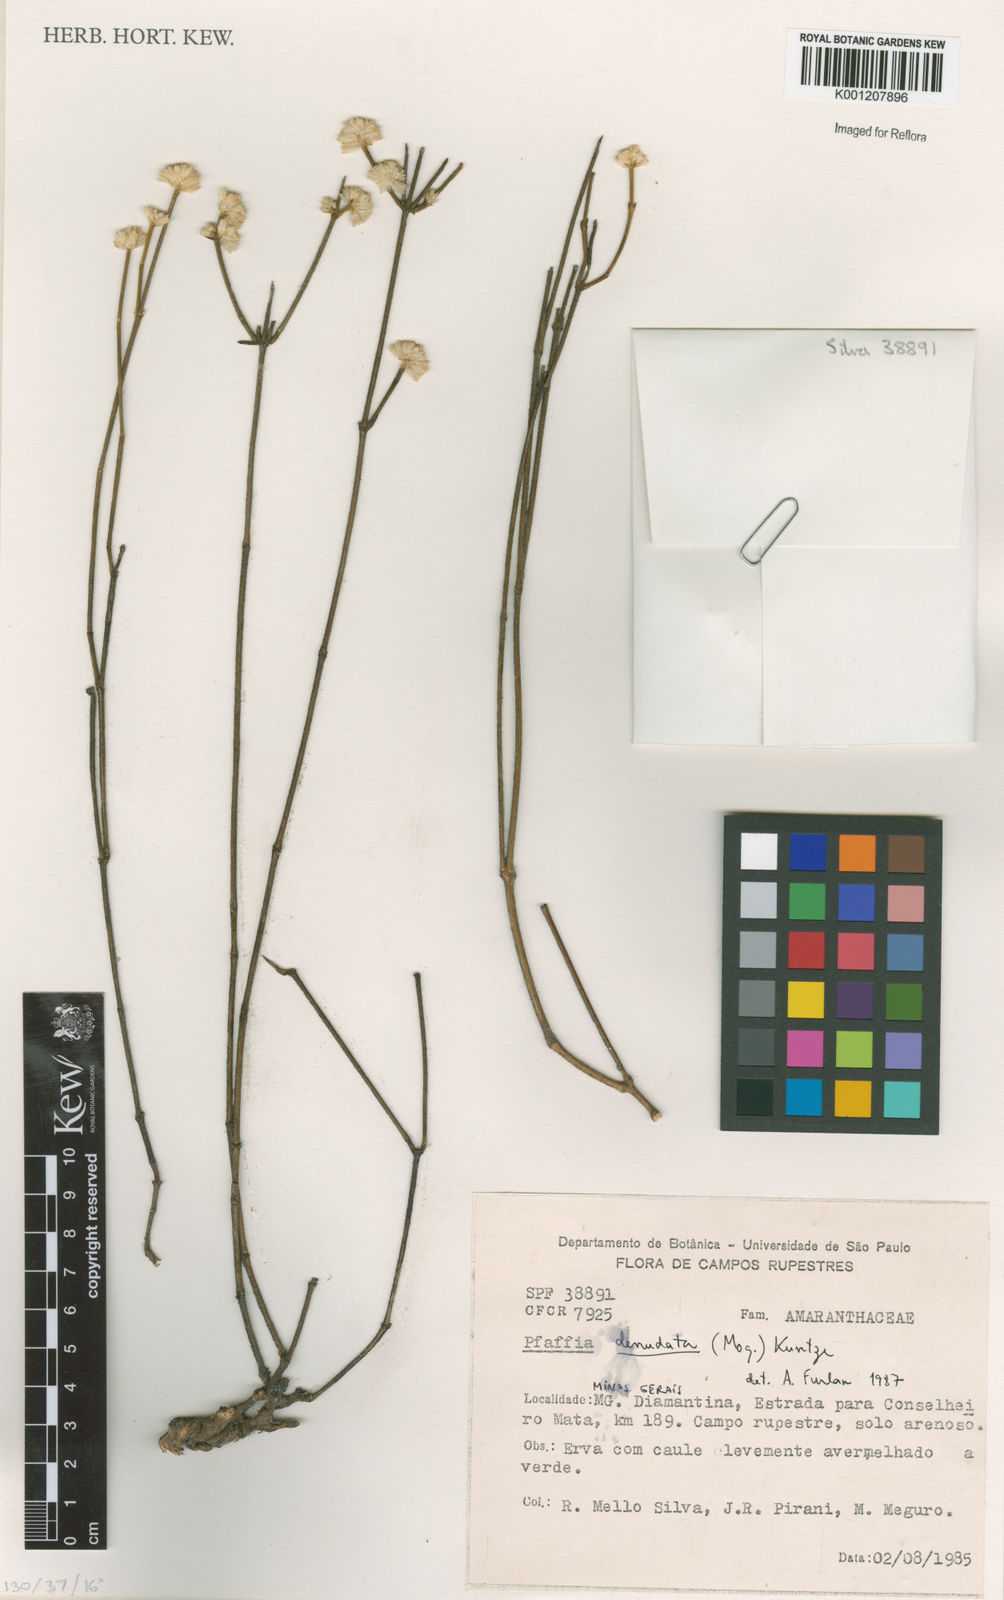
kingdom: Plantae
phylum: Tracheophyta
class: Magnoliopsida
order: Caryophyllales
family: Amaranthaceae
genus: Pfaffia
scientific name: Pfaffia denudata
